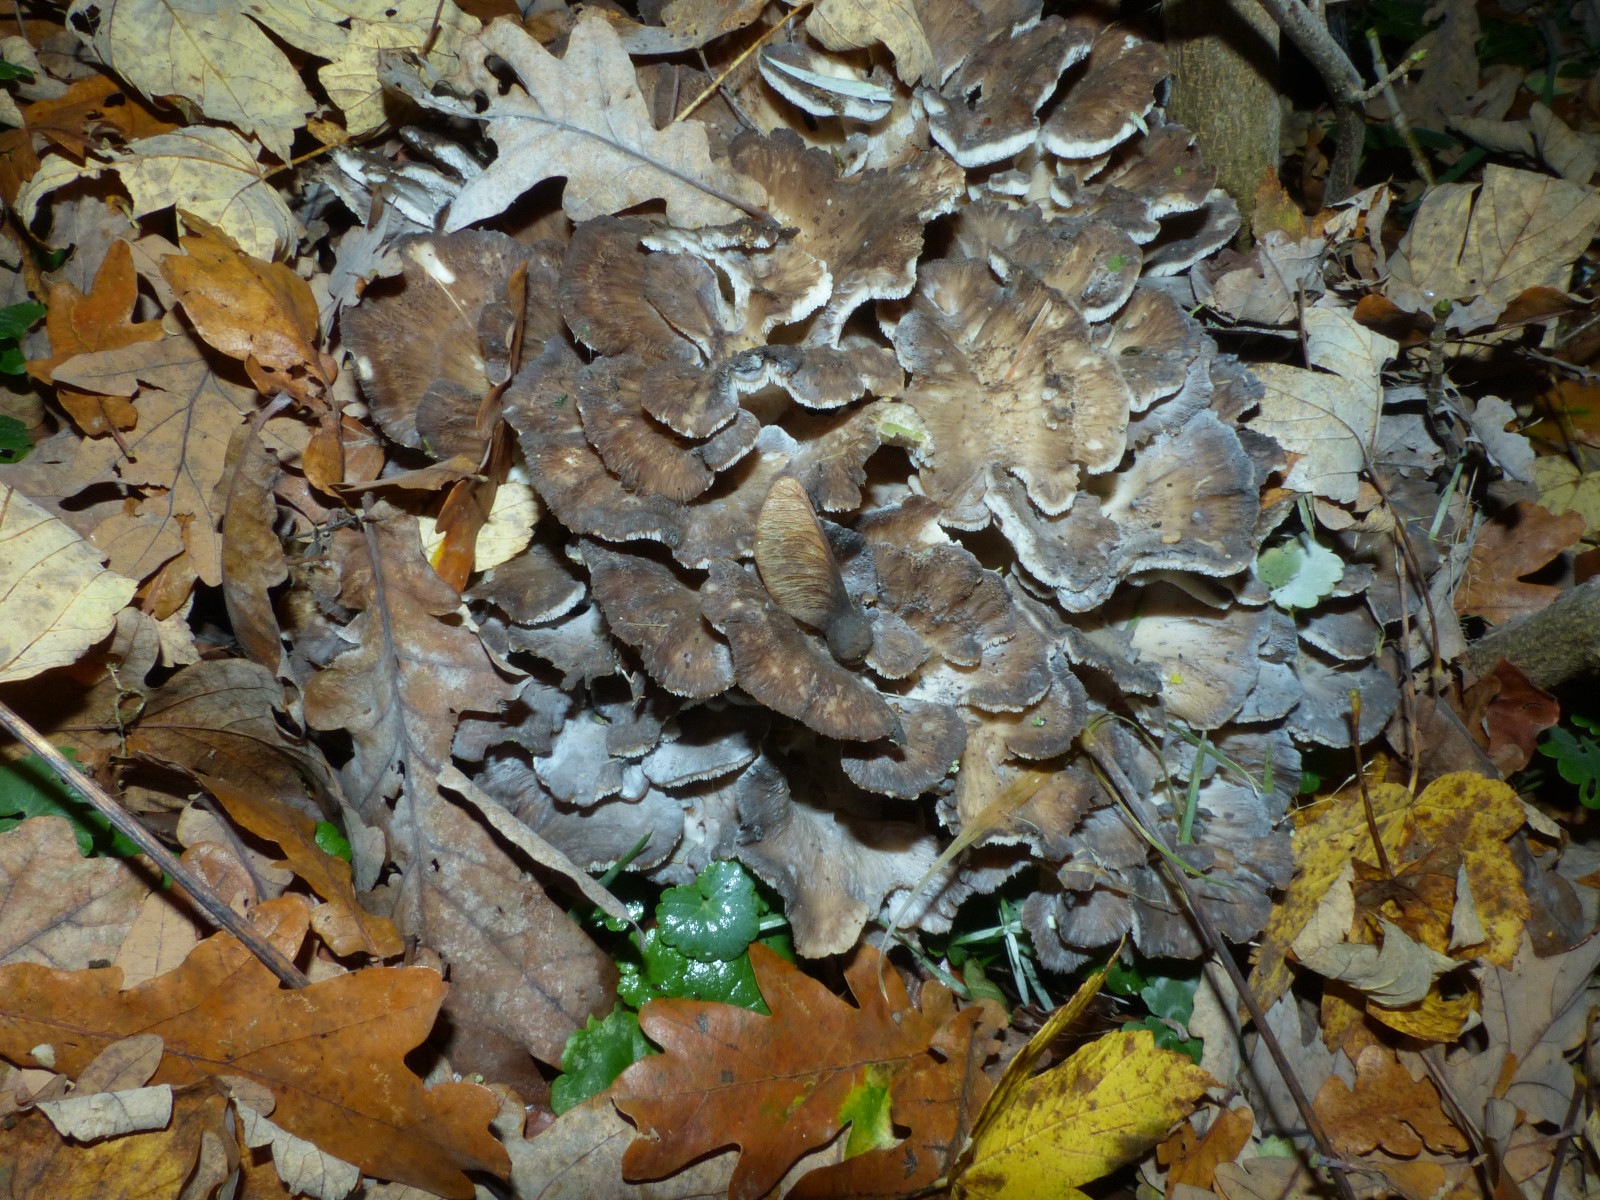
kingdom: Fungi
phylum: Basidiomycota
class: Agaricomycetes
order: Polyporales
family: Grifolaceae
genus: Grifola
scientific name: Grifola frondosa
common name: tueporesvamp
